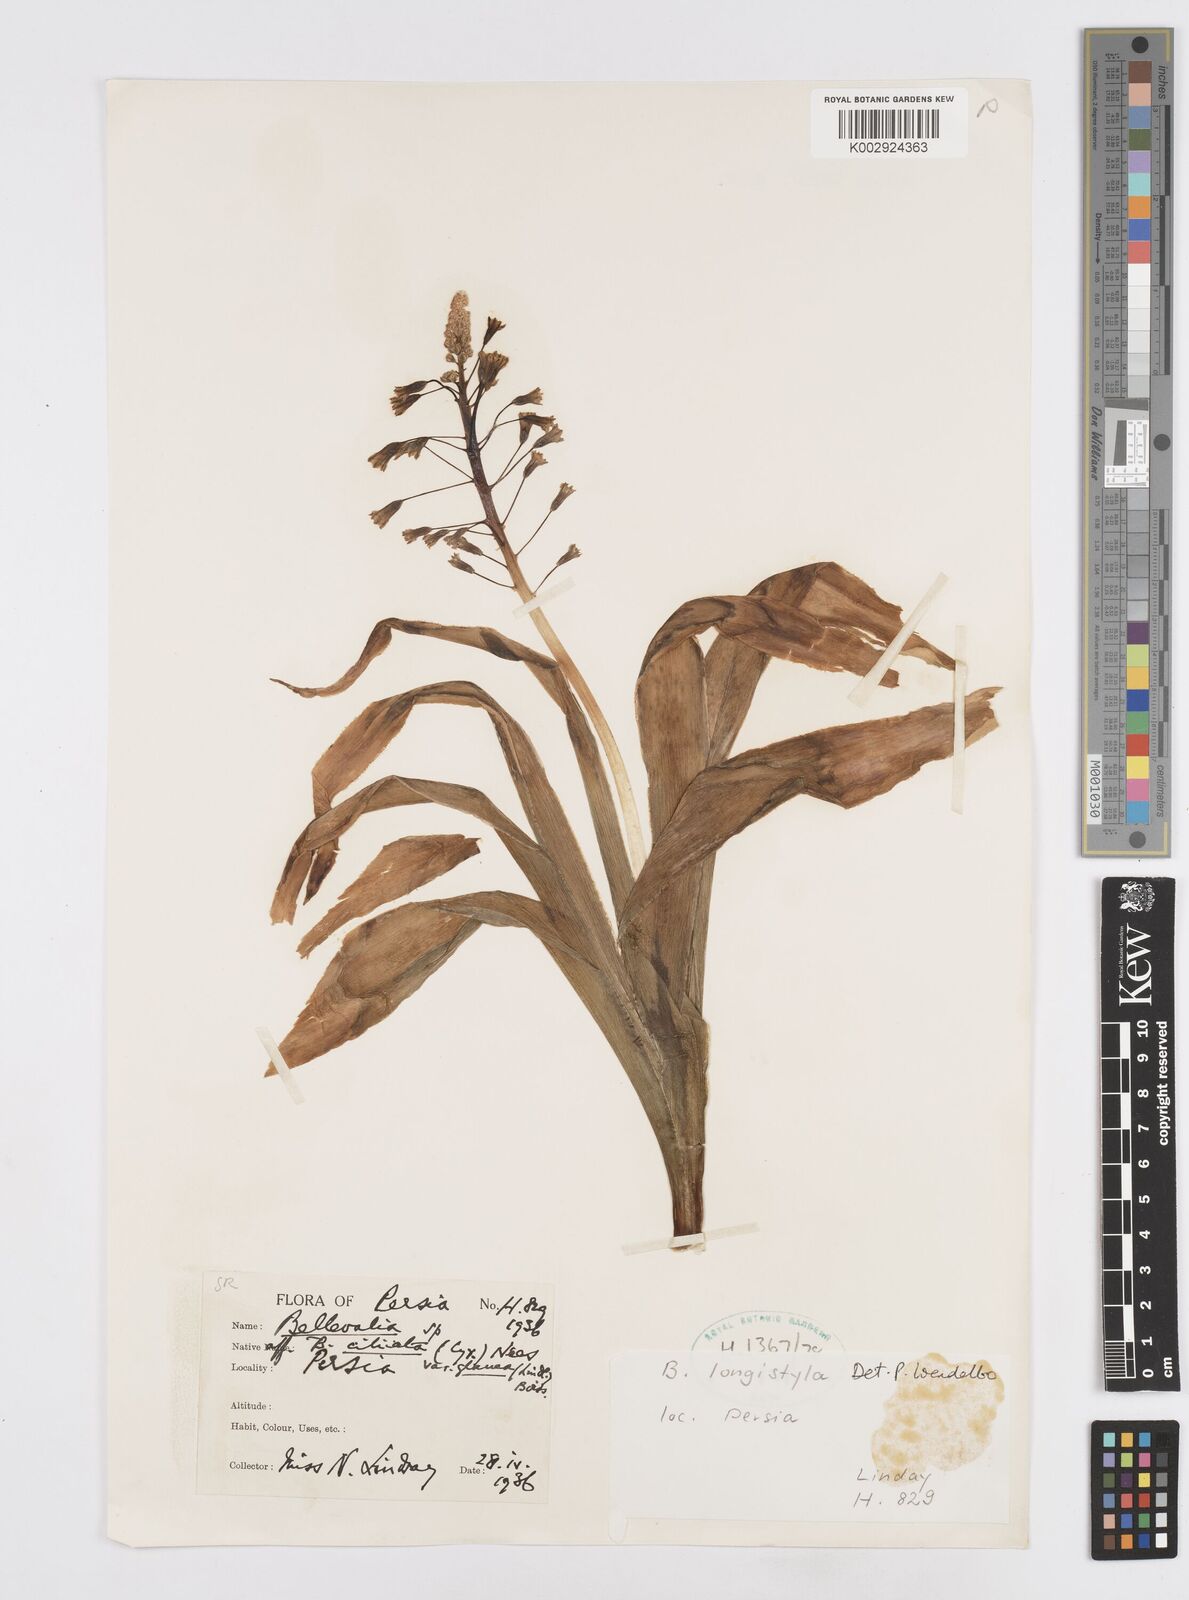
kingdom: Plantae
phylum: Tracheophyta
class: Liliopsida
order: Asparagales
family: Asparagaceae
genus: Bellevalia
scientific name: Bellevalia longistyla
